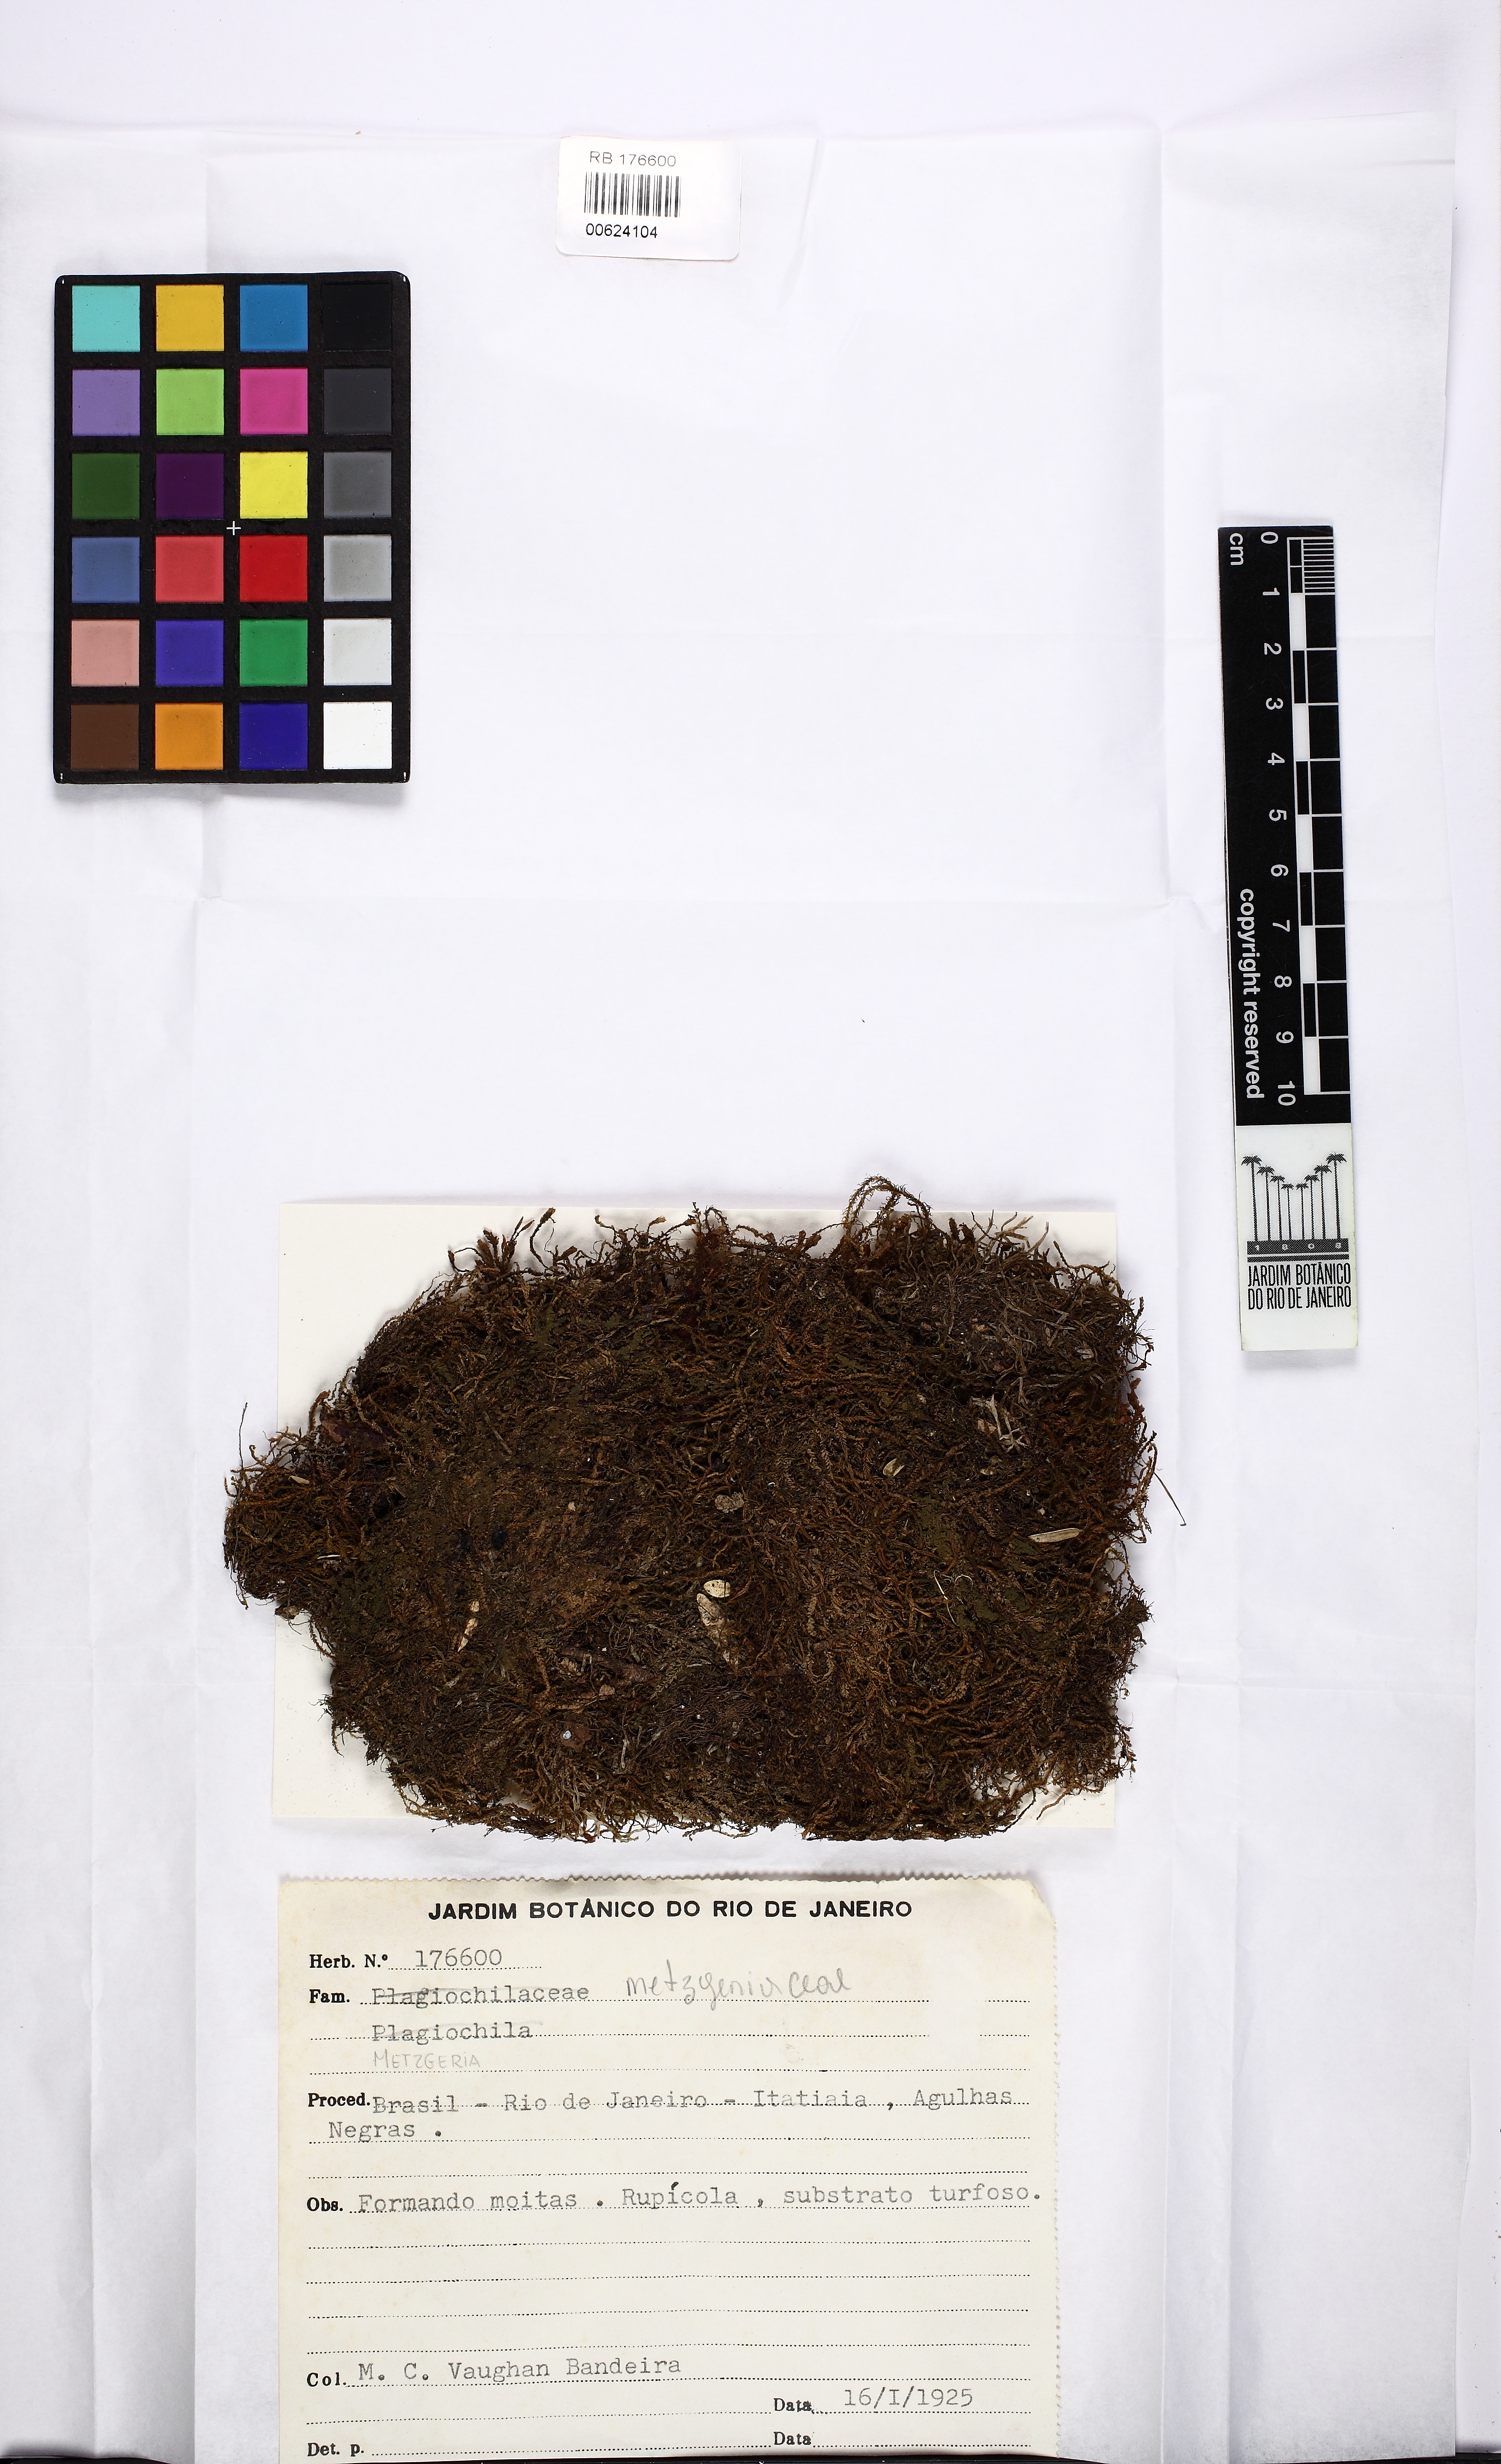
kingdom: Plantae
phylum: Marchantiophyta
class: Jungermanniopsida
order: Metzgeriales
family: Metzgeriaceae
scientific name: Metzgeriaceae
